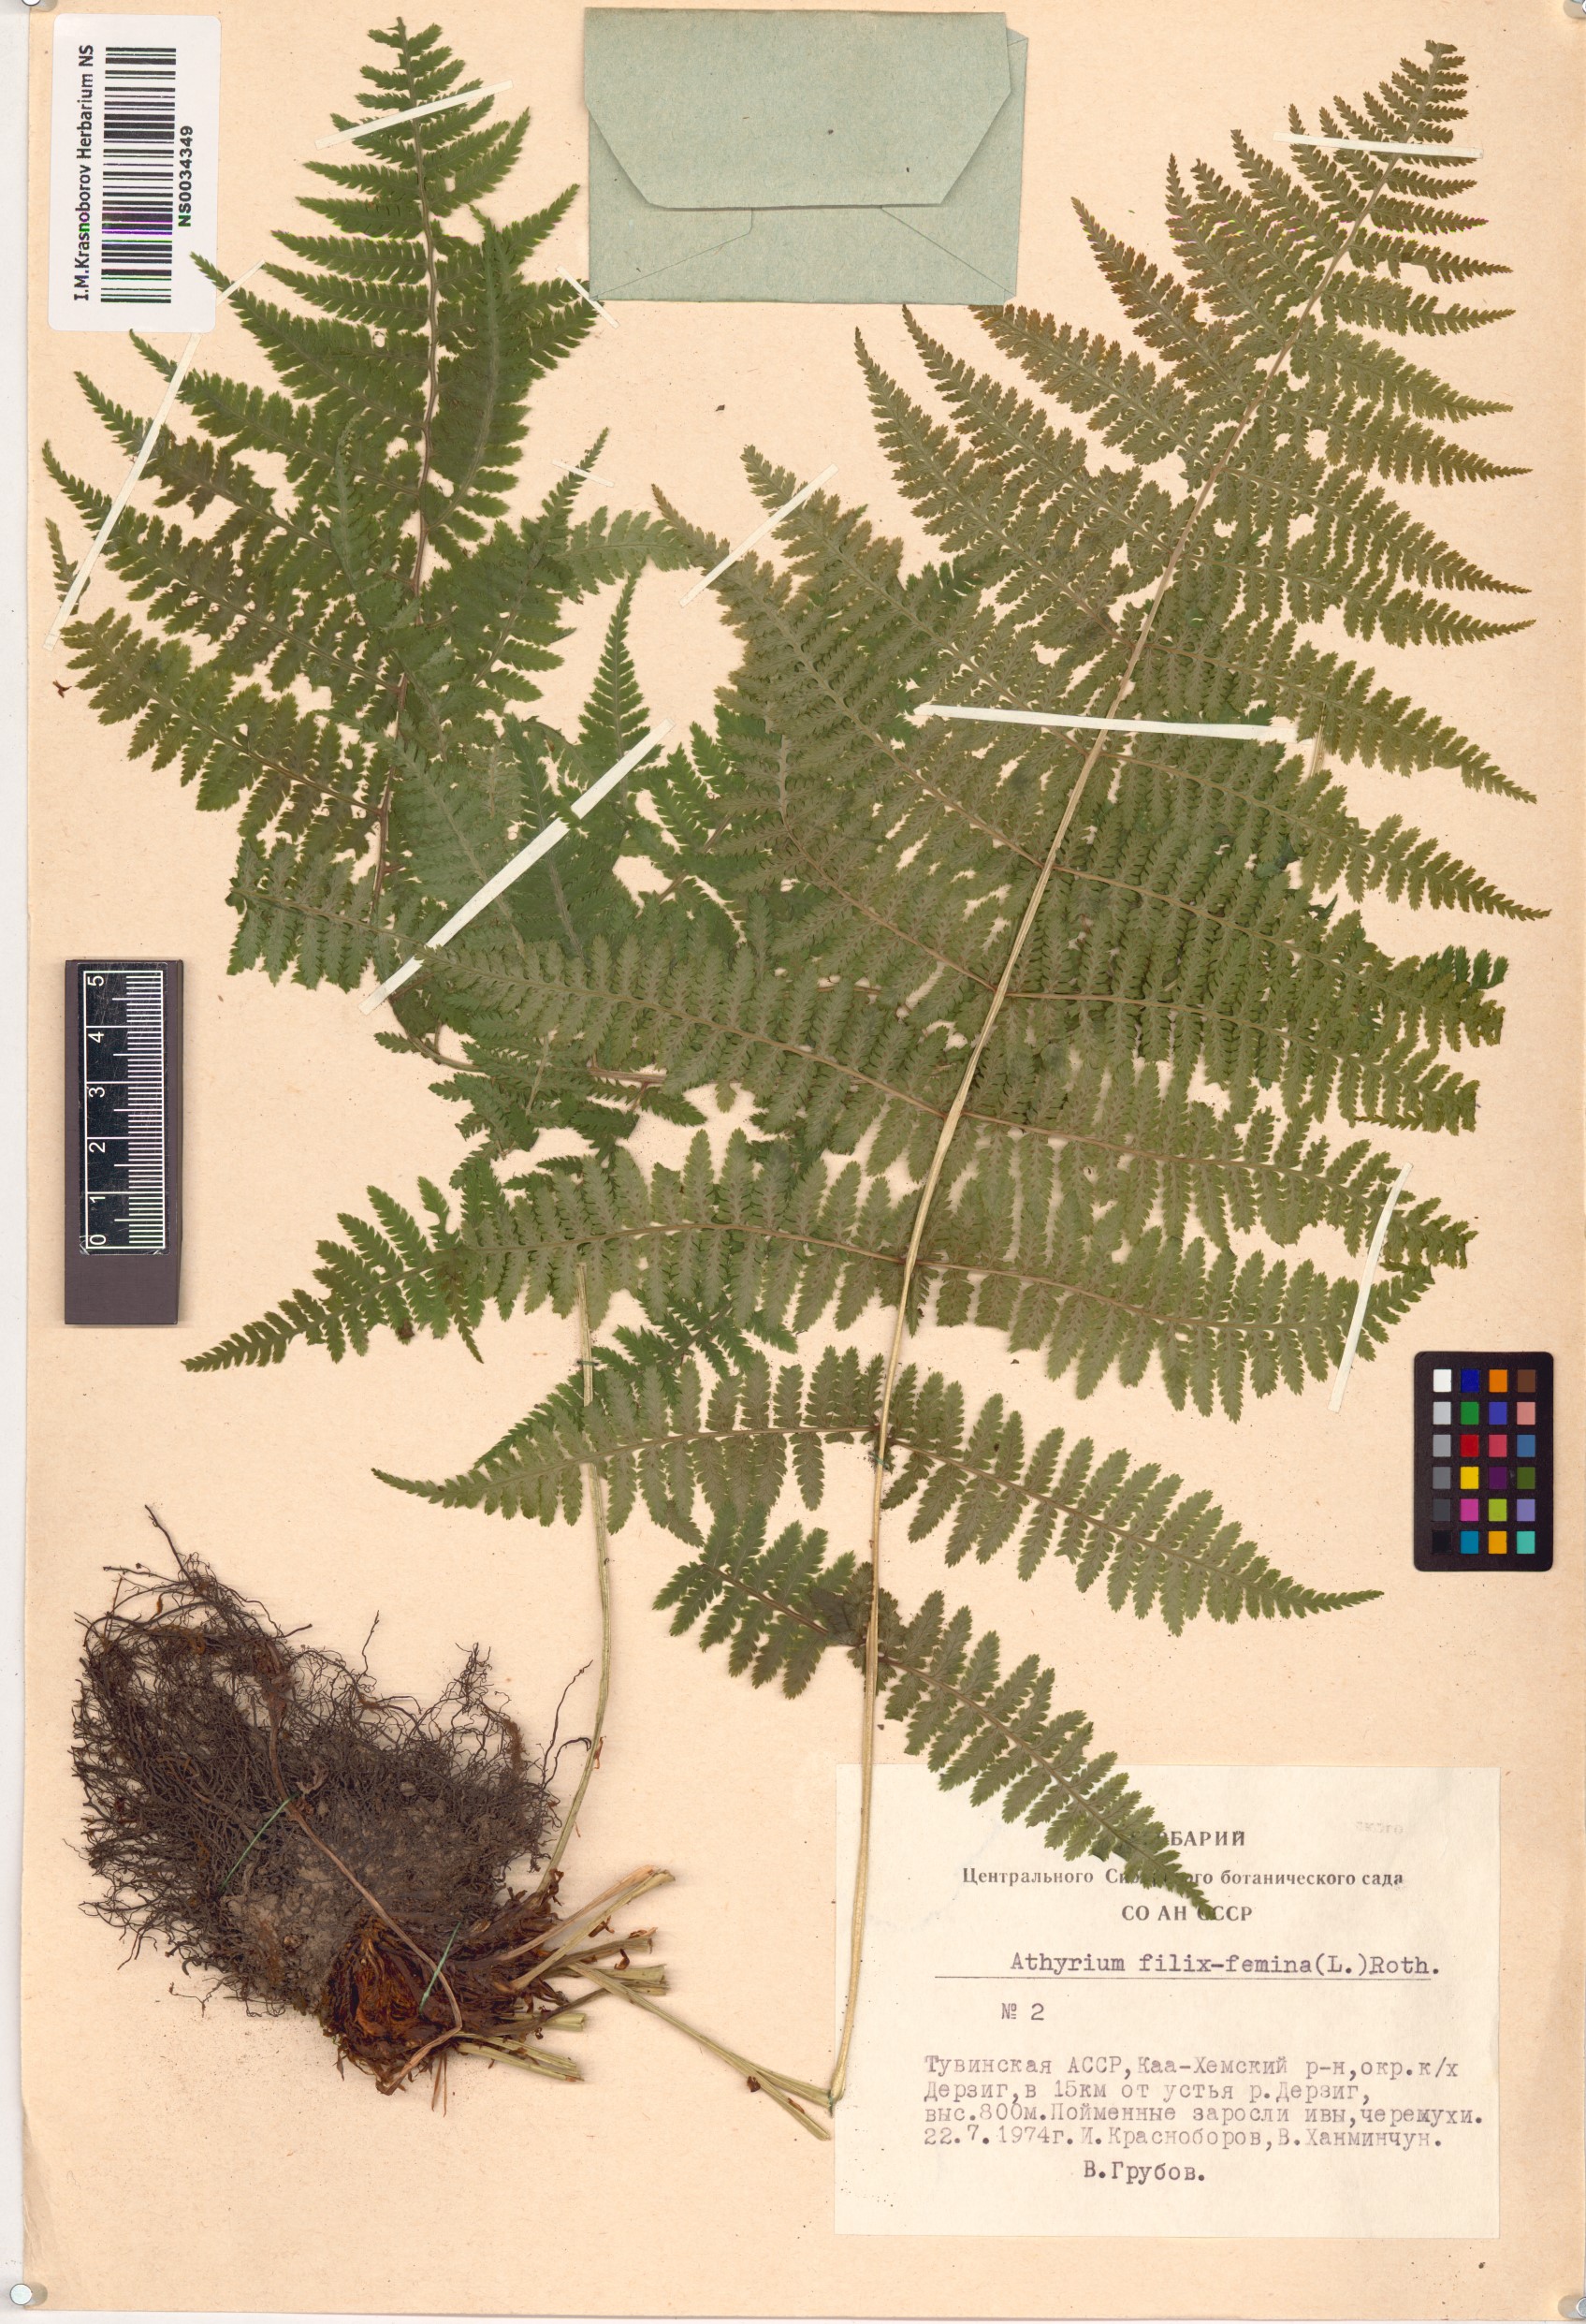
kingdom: Plantae
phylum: Tracheophyta
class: Polypodiopsida
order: Polypodiales
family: Athyriaceae
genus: Athyrium
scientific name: Athyrium filix-femina
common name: Lady fern
